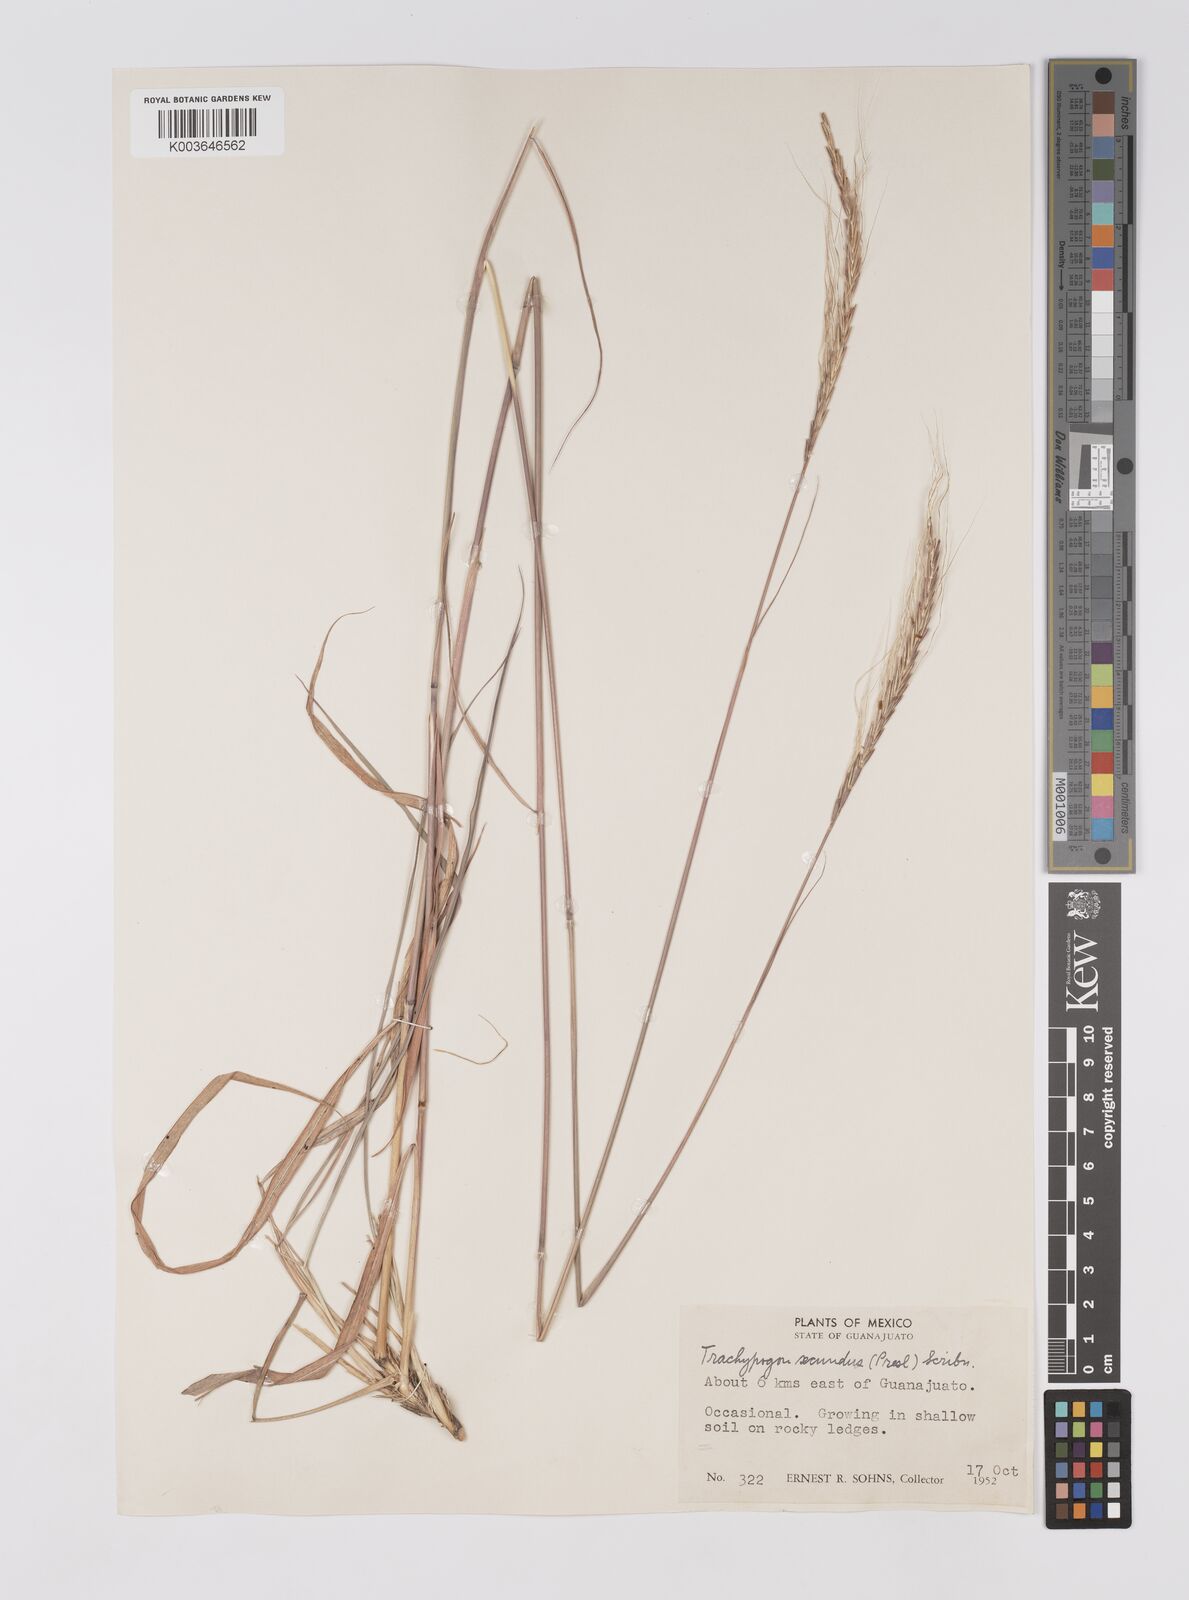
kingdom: Plantae
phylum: Tracheophyta
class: Liliopsida
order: Poales
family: Poaceae
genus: Trachypogon
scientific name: Trachypogon spicatus
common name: Crinkle-awn
